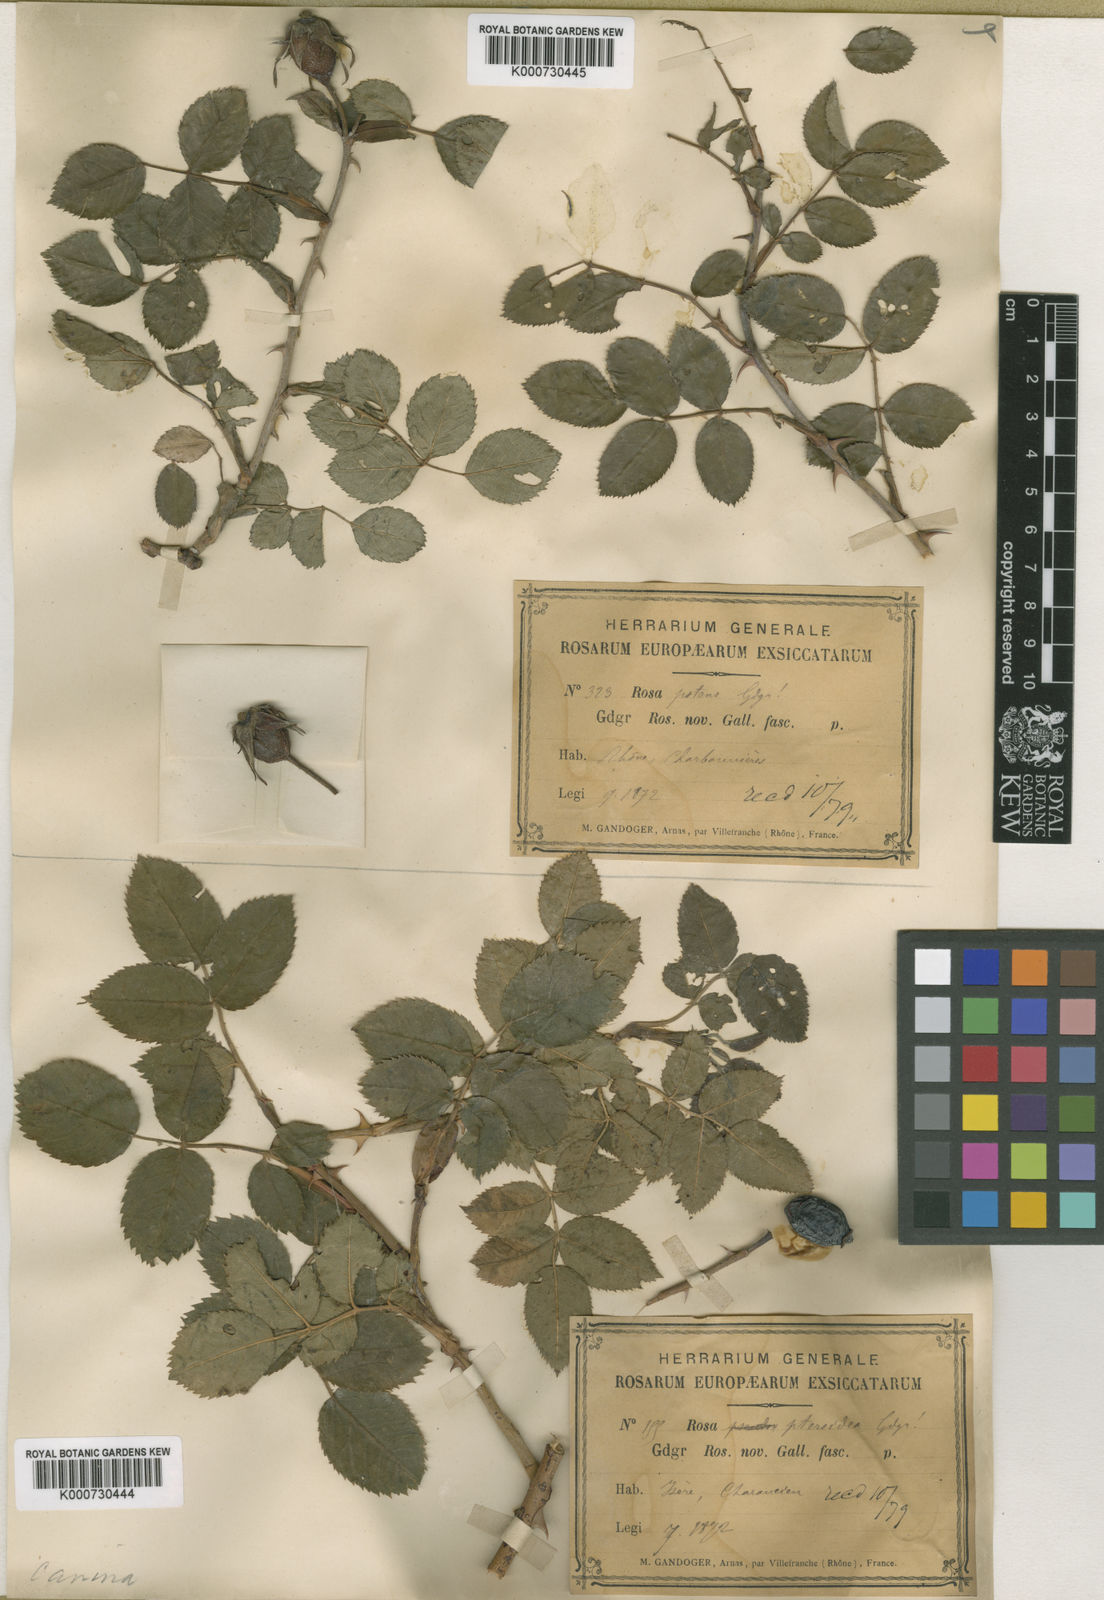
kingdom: Plantae
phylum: Tracheophyta
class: Magnoliopsida
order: Rosales
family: Rosaceae
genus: Rosa
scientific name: Rosa canina
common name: Dog rose
